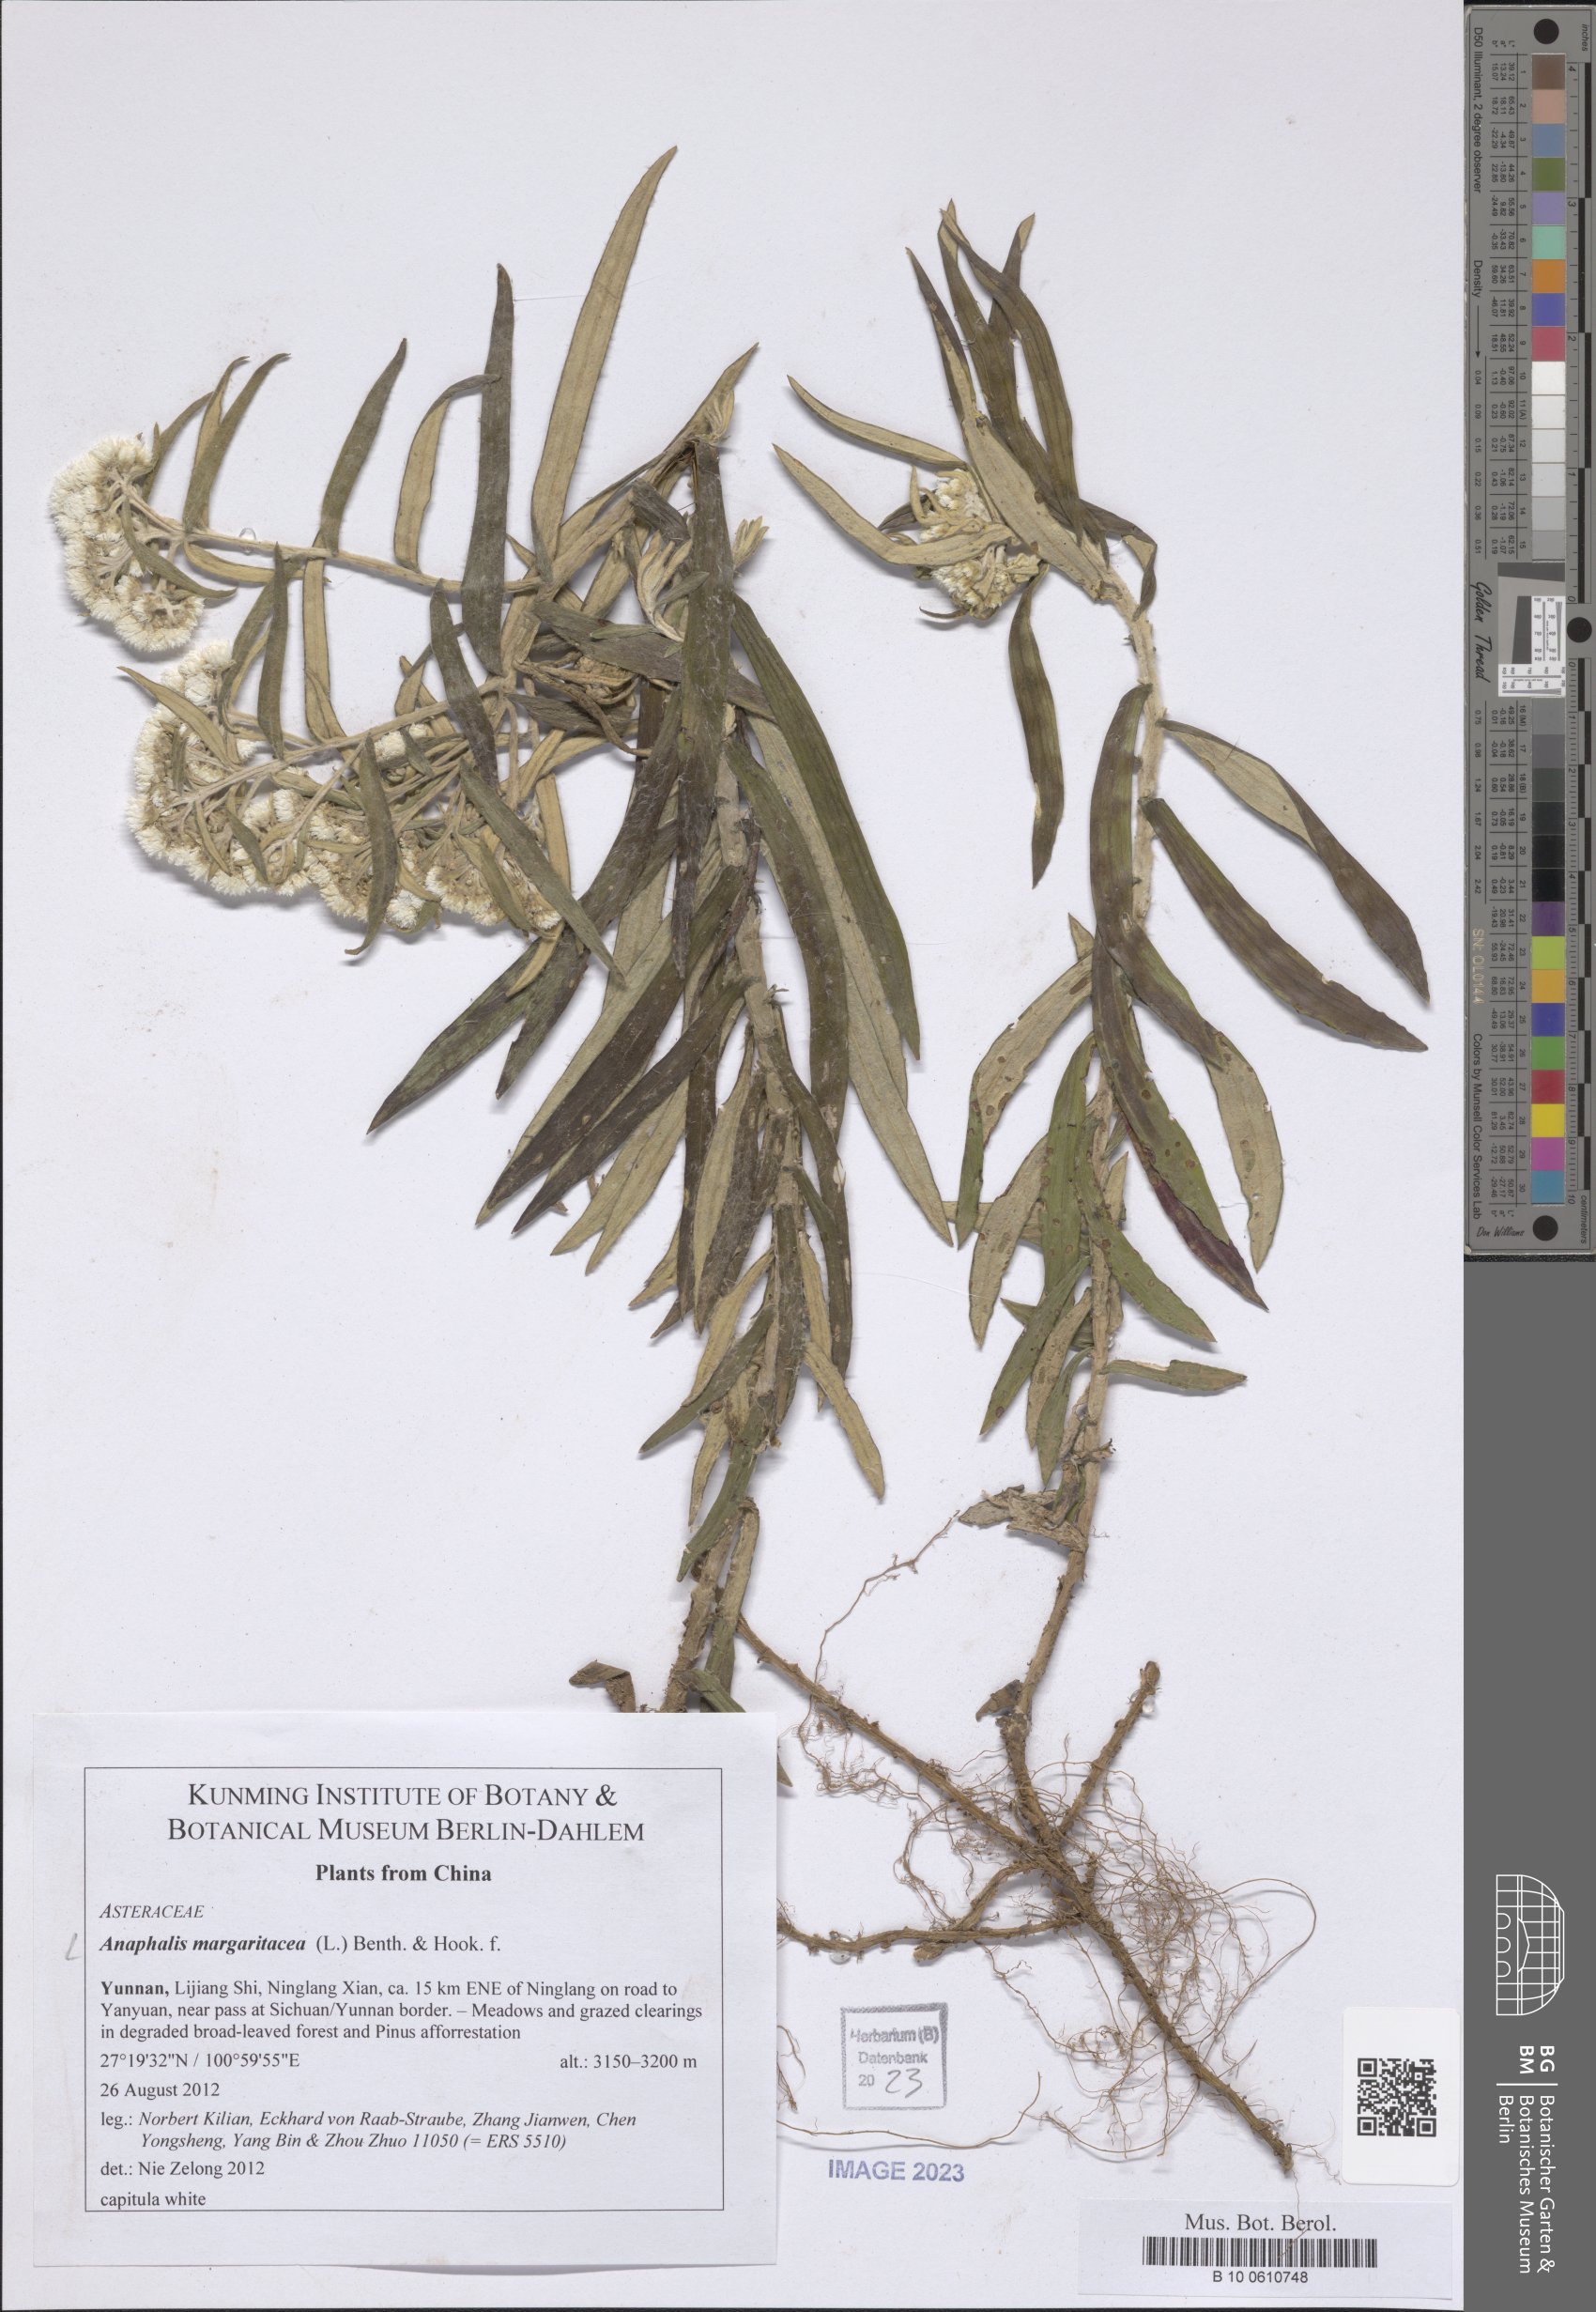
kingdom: Plantae
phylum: Tracheophyta
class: Magnoliopsida
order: Asterales
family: Asteraceae
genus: Anaphalis
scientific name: Anaphalis margaritacea
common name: Pearly everlasting
